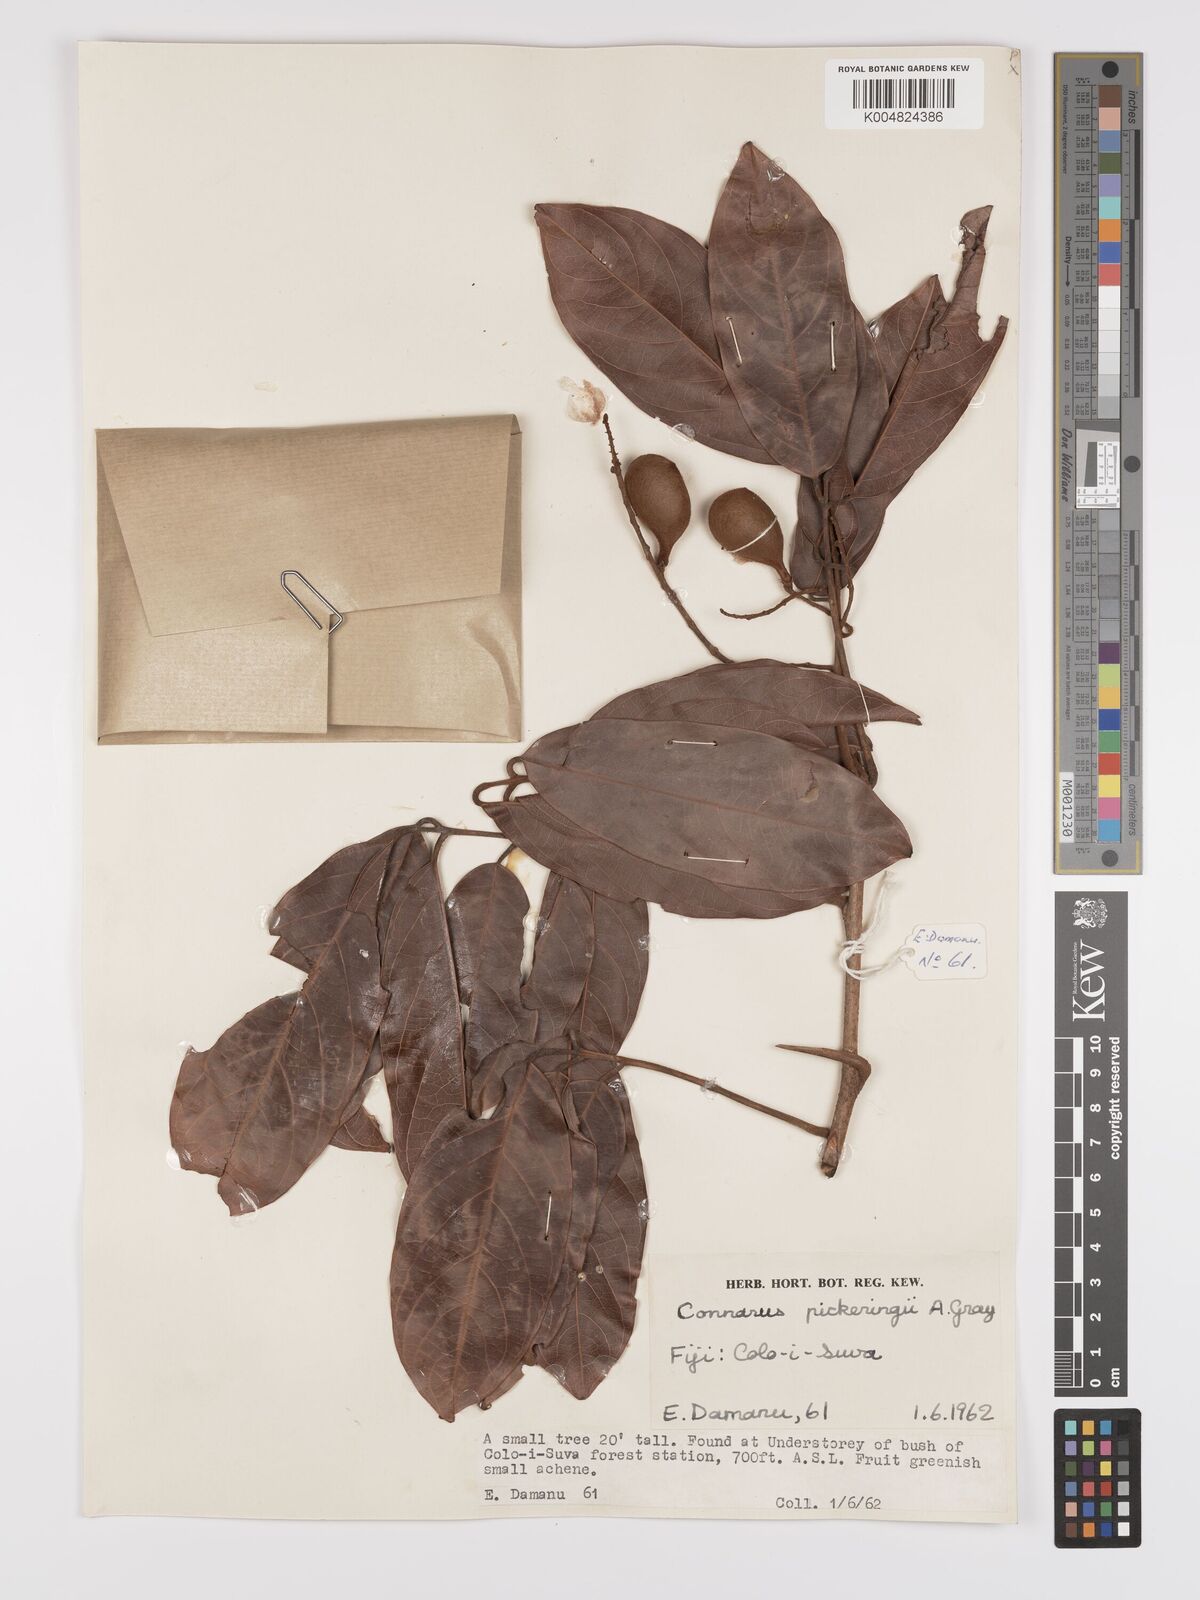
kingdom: Plantae
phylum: Tracheophyta
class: Magnoliopsida
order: Oxalidales
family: Connaraceae
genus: Connarus
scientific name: Connarus pickeringii
